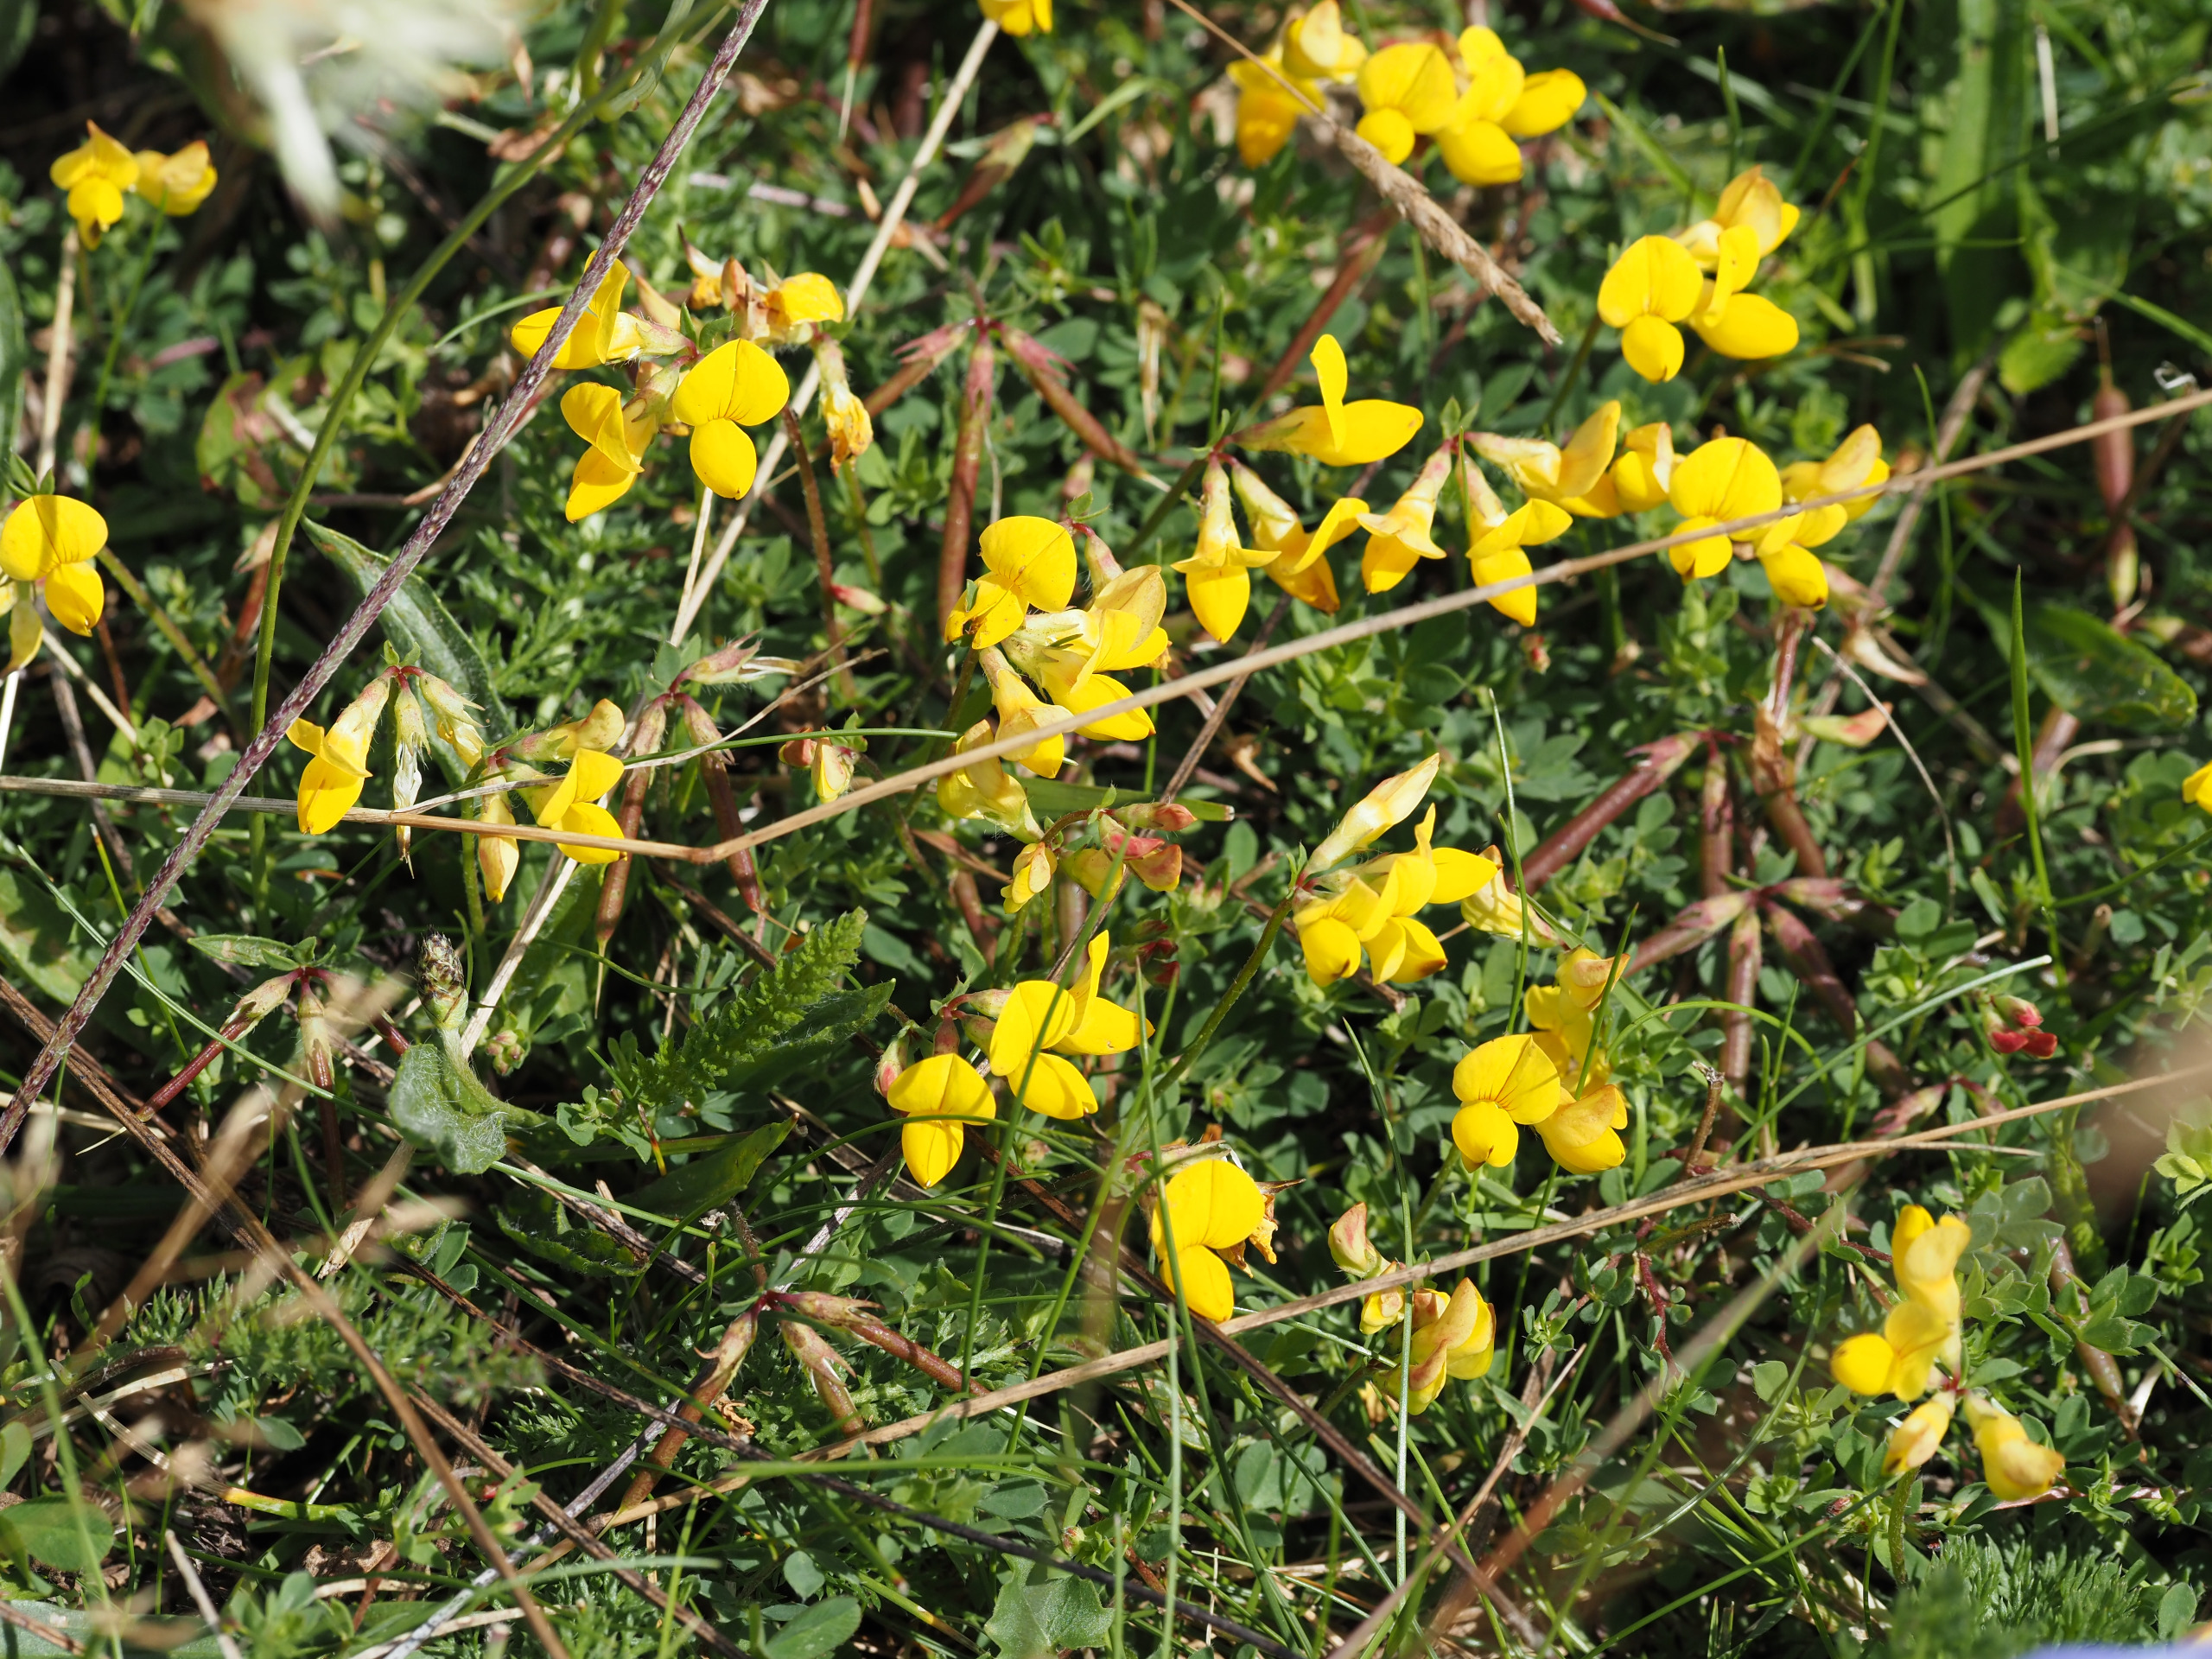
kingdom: Plantae
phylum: Tracheophyta
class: Magnoliopsida
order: Fabales
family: Fabaceae
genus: Lotus
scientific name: Lotus corniculatus
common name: Almindelig kællingetand
